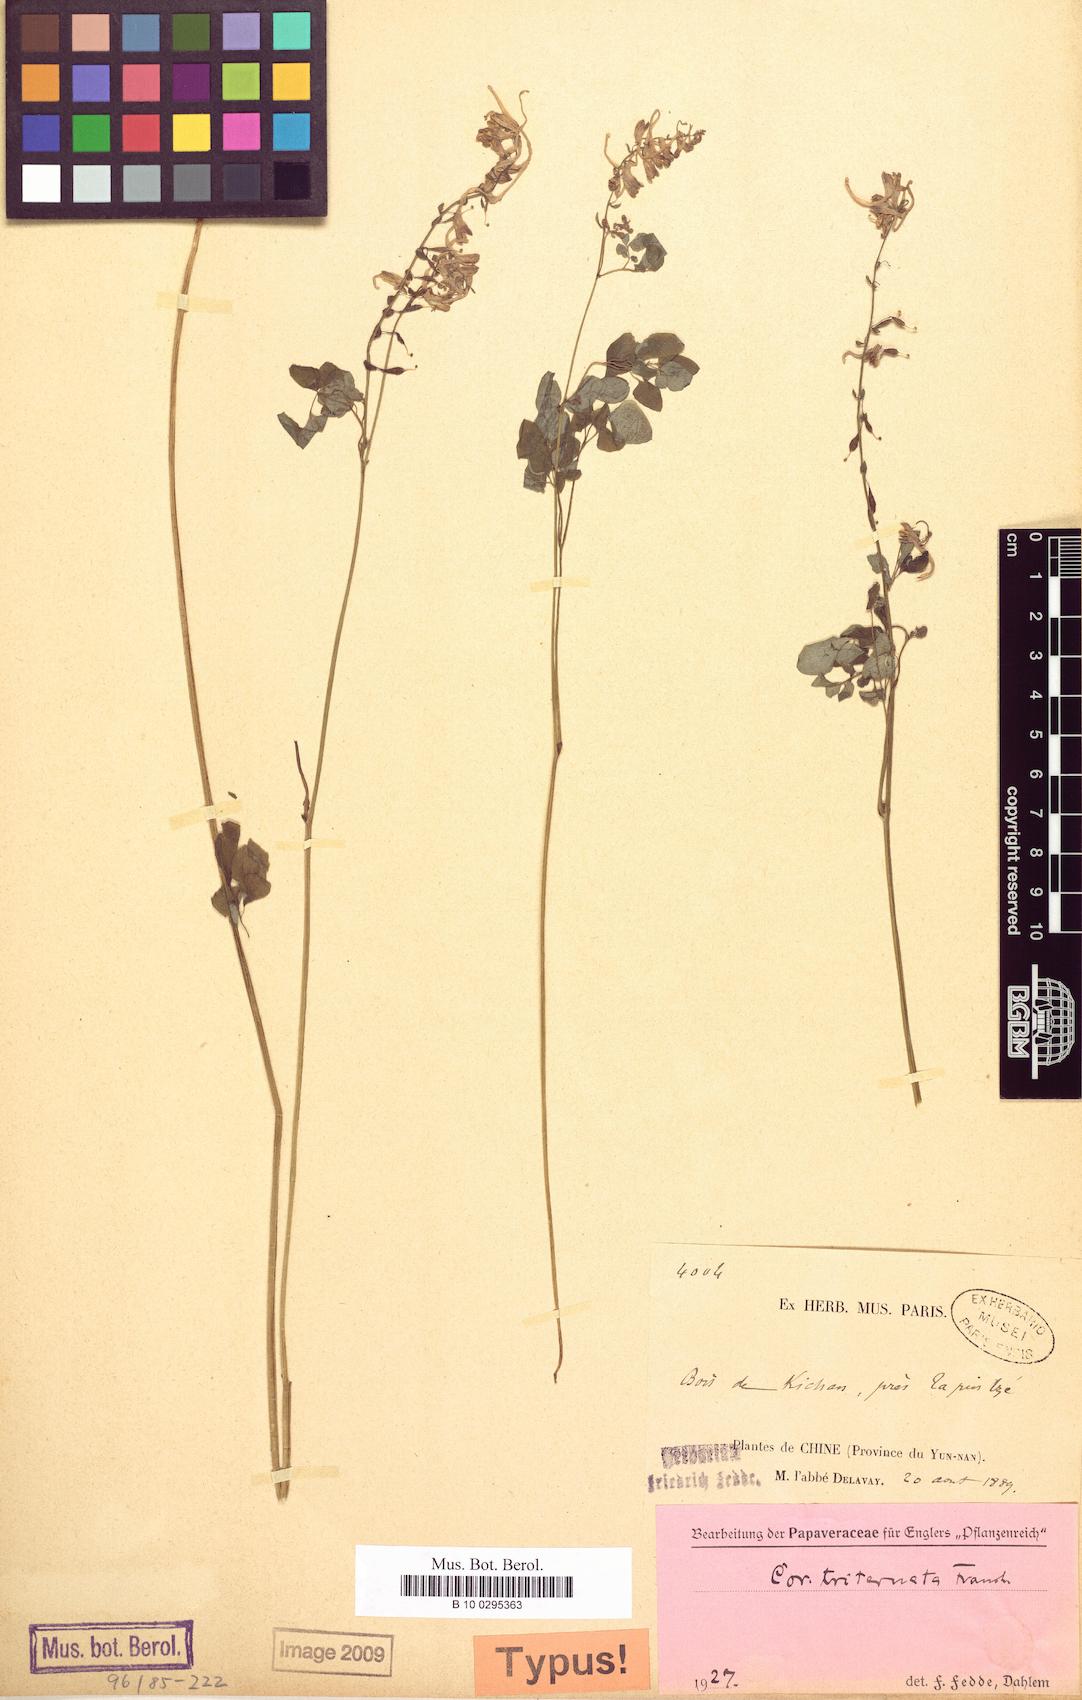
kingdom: Plantae
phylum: Tracheophyta
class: Magnoliopsida
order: Ranunculales
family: Papaveraceae
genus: Corydalis
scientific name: Corydalis triternatifolia
